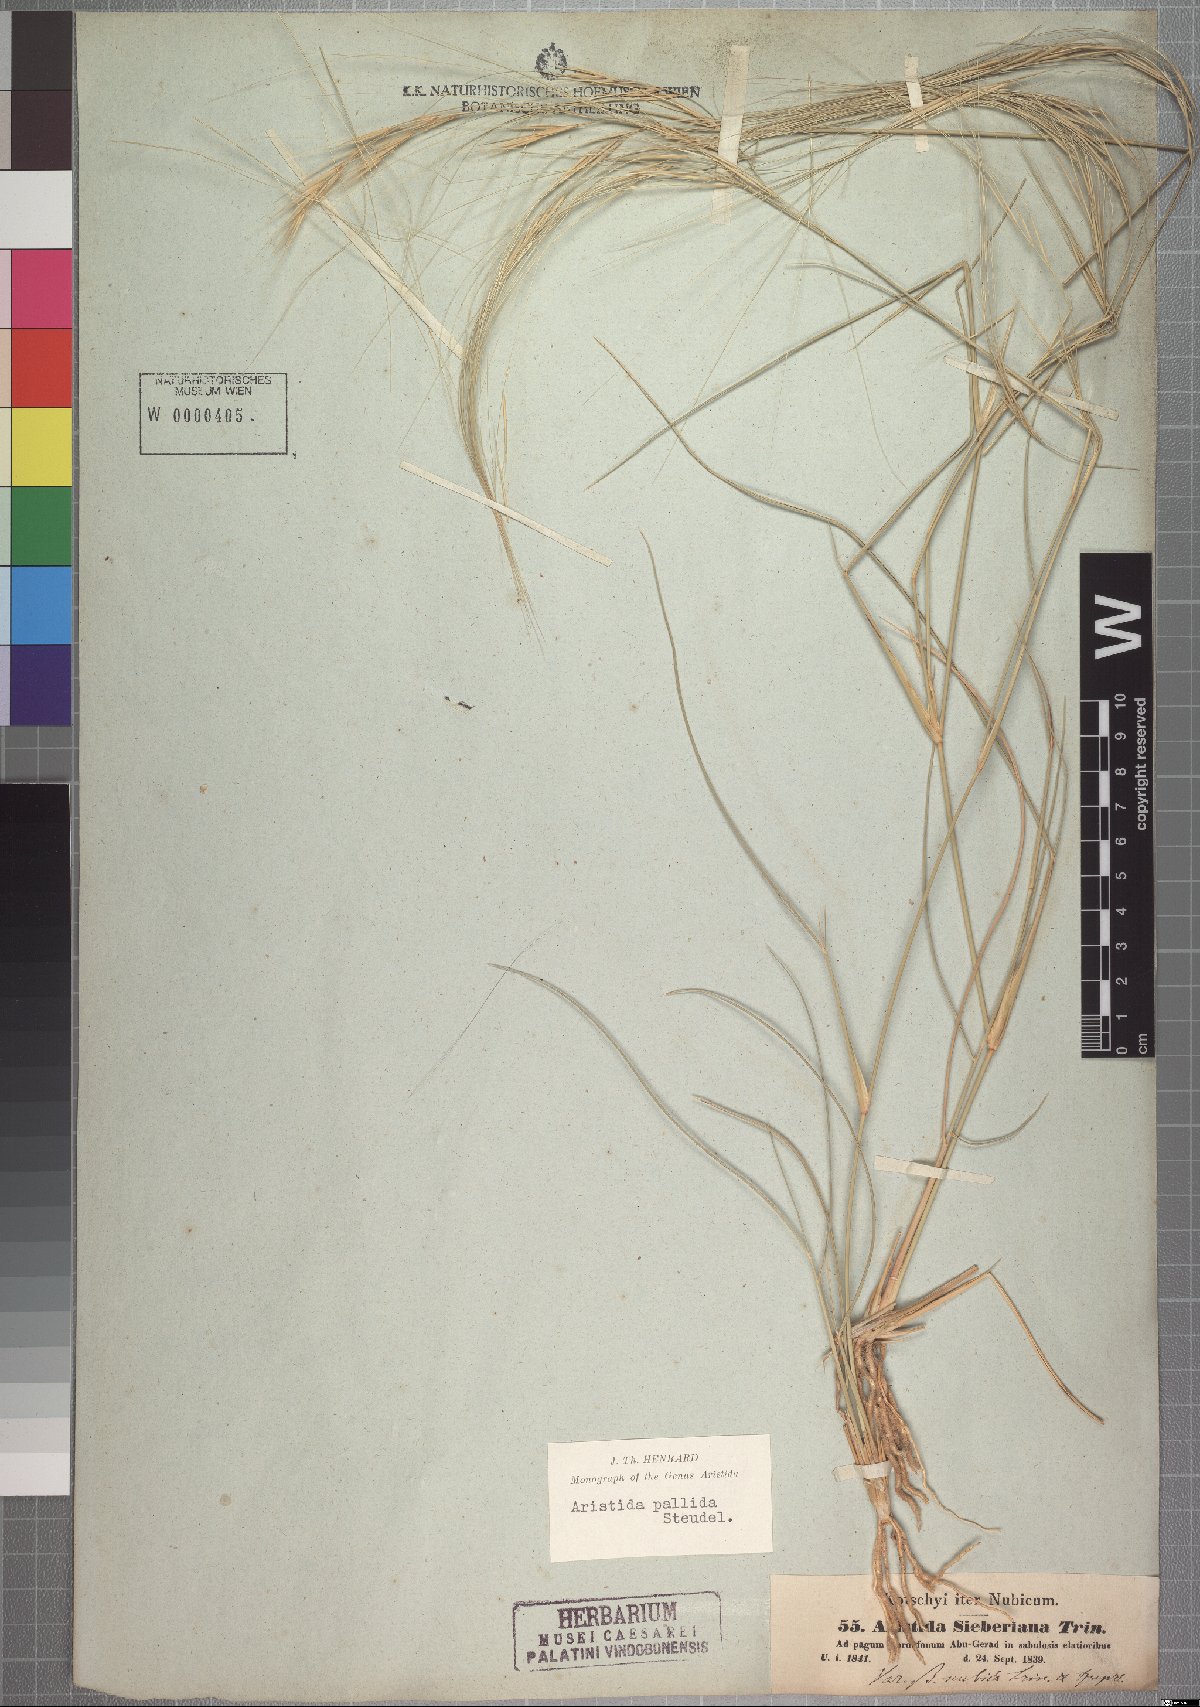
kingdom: Plantae
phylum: Tracheophyta
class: Liliopsida
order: Poales
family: Poaceae
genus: Aristida
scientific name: Aristida sieberiana
